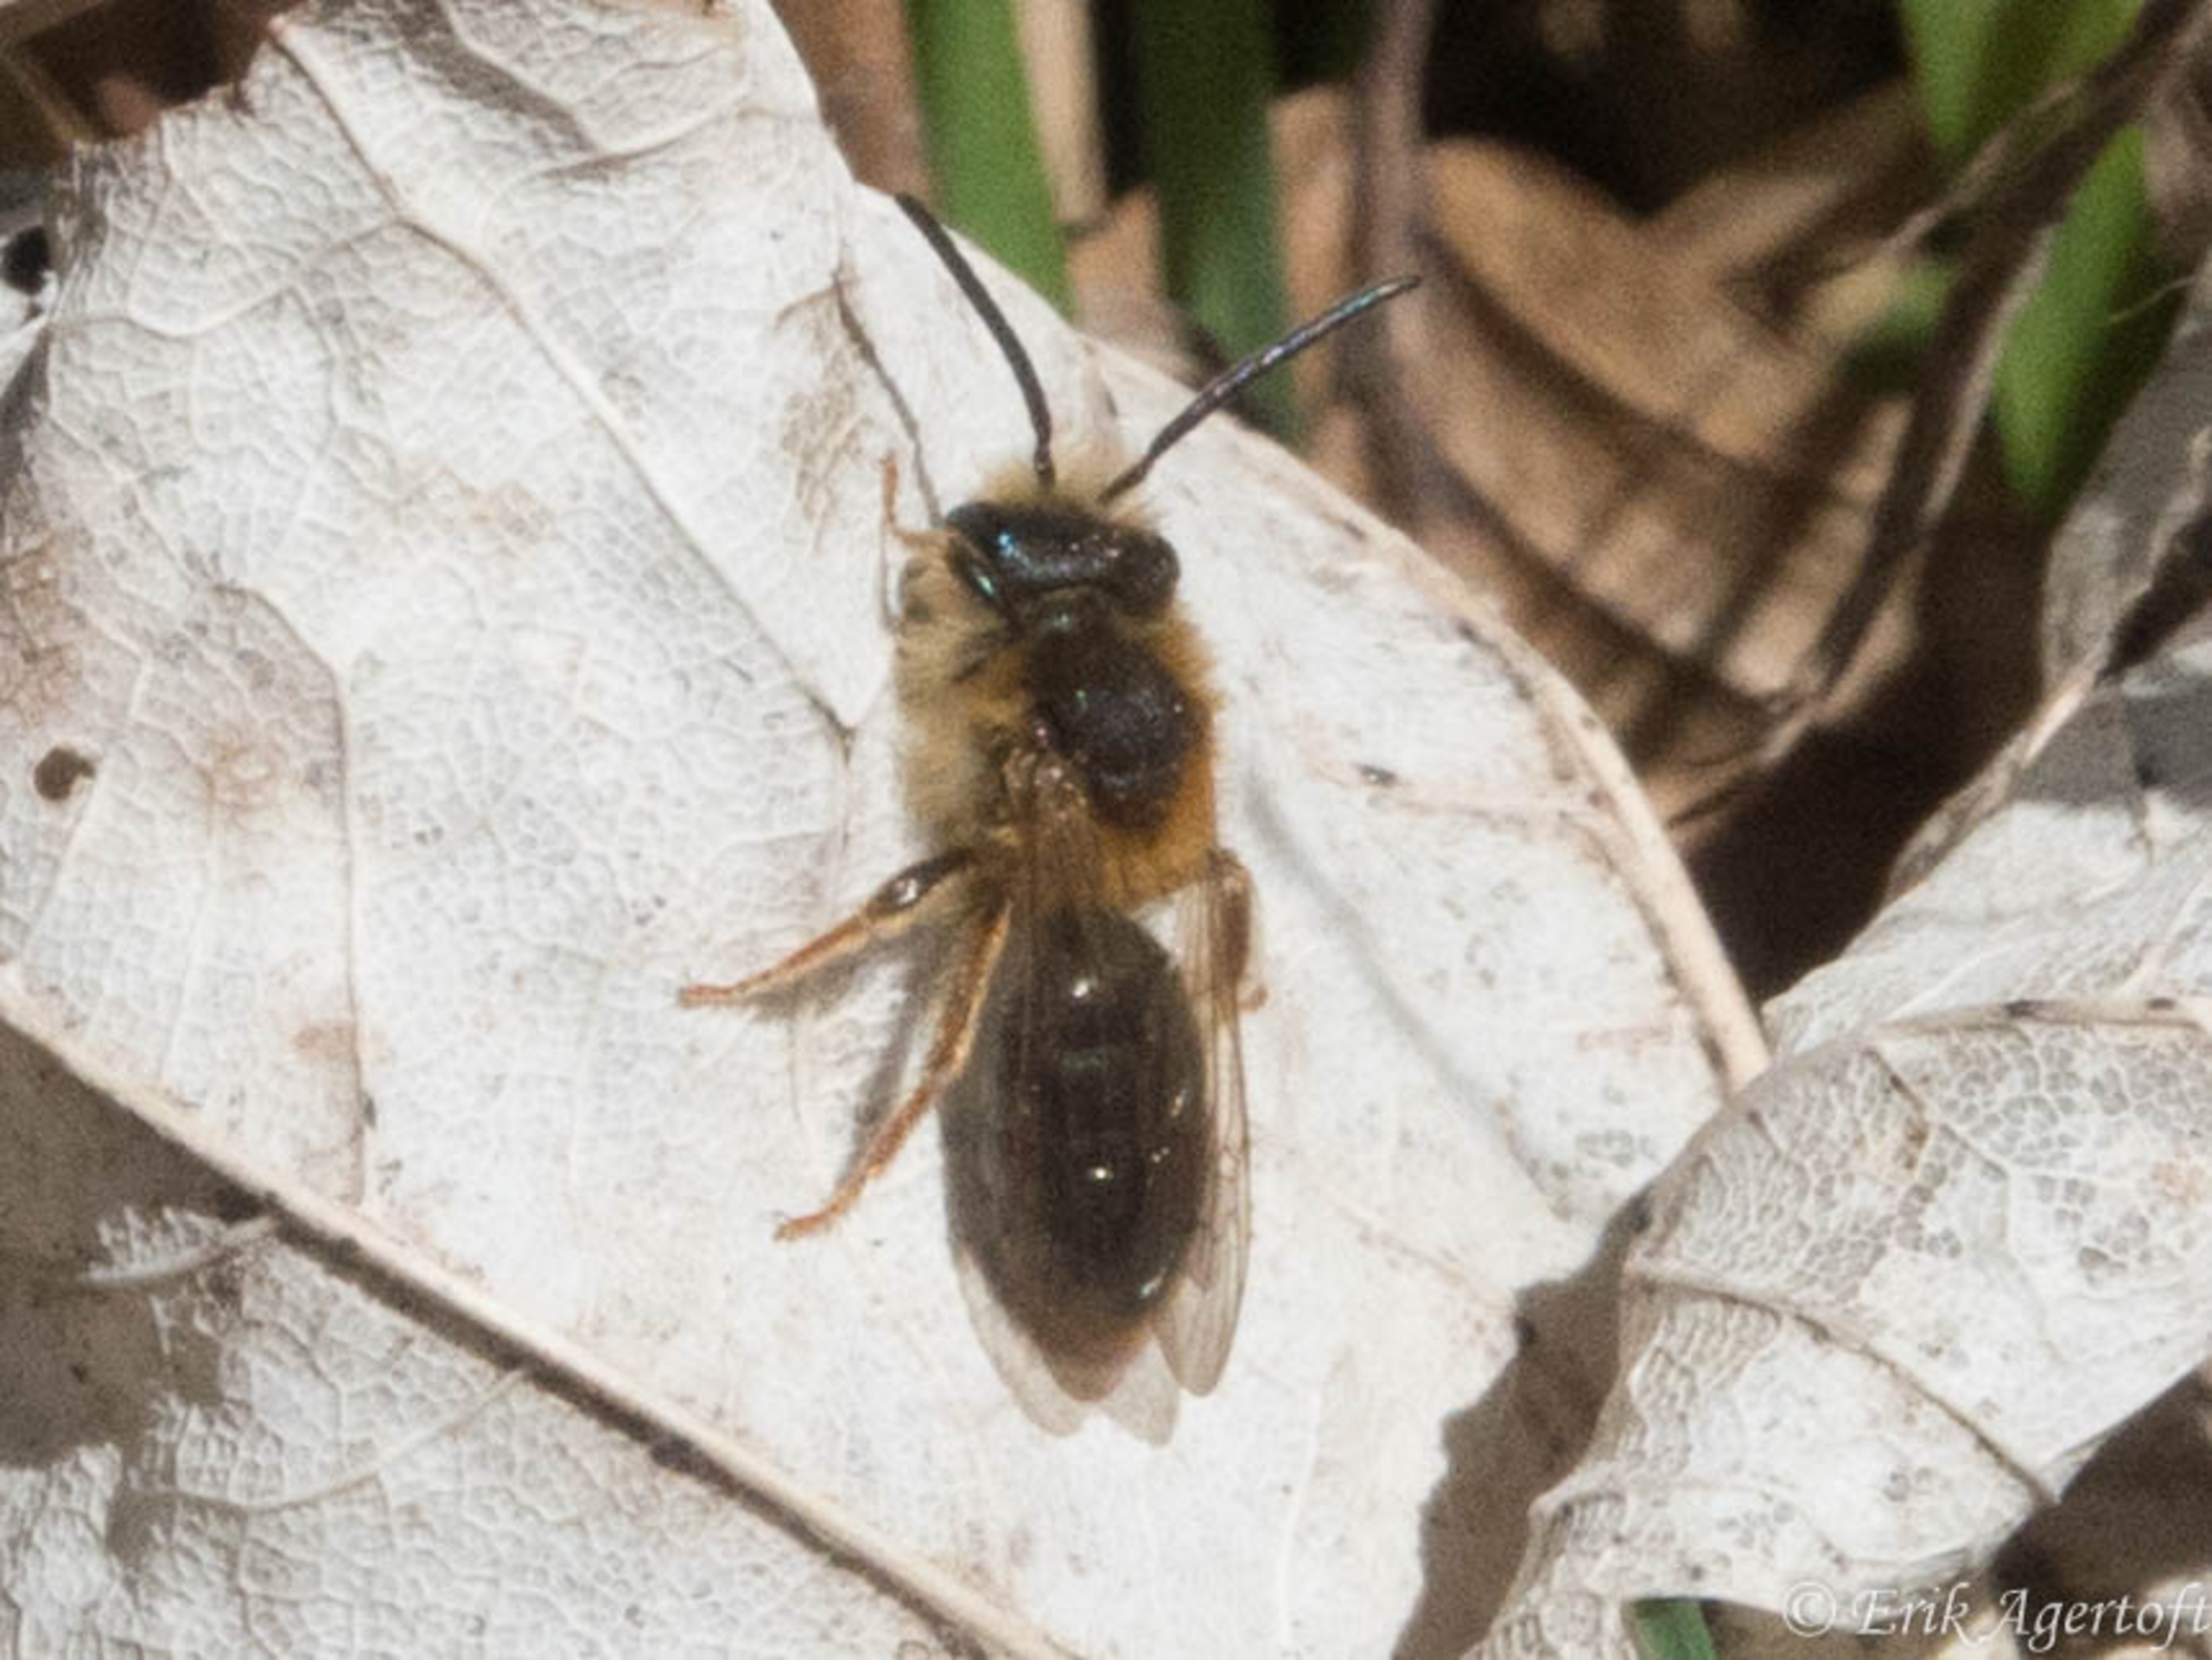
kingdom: Animalia
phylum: Arthropoda
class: Insecta
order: Hymenoptera
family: Andrenidae
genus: Andrena
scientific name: Andrena
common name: Jordbier
